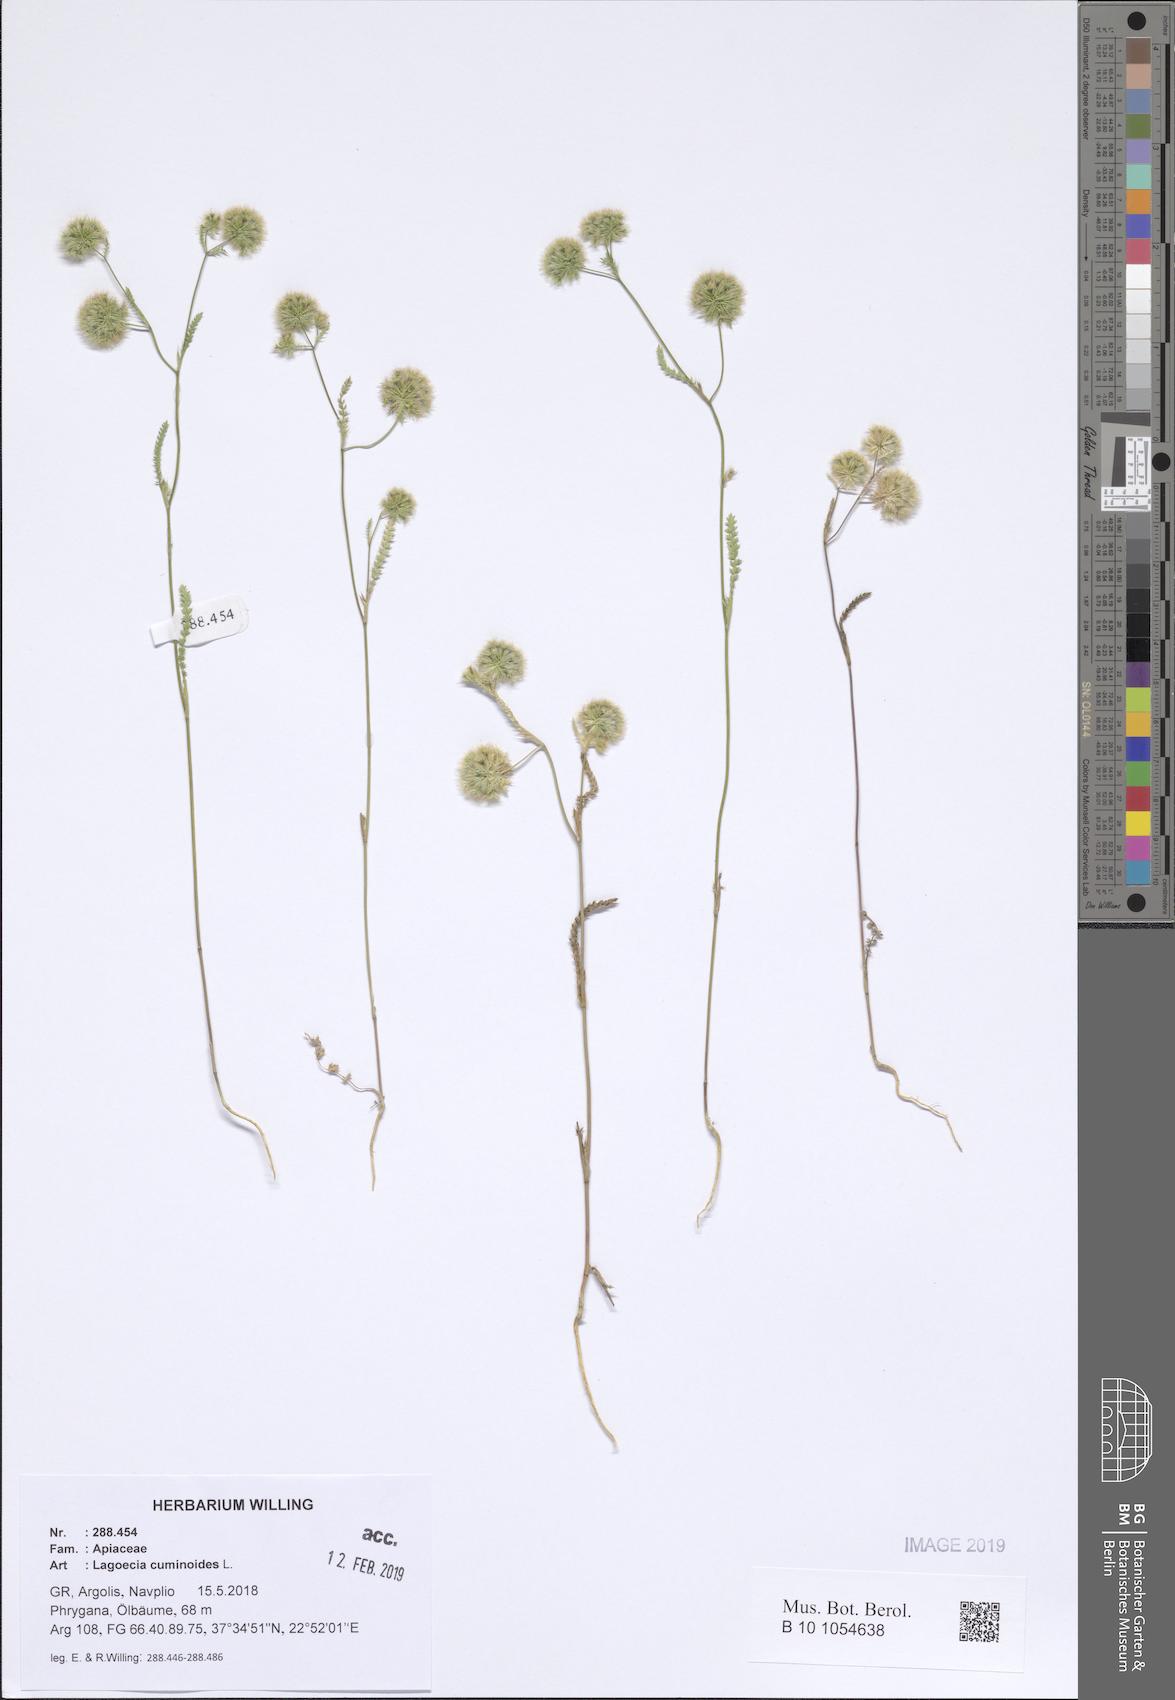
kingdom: Plantae
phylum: Tracheophyta
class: Magnoliopsida
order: Apiales
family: Apiaceae
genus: Lagoecia
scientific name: Lagoecia cuminoides
